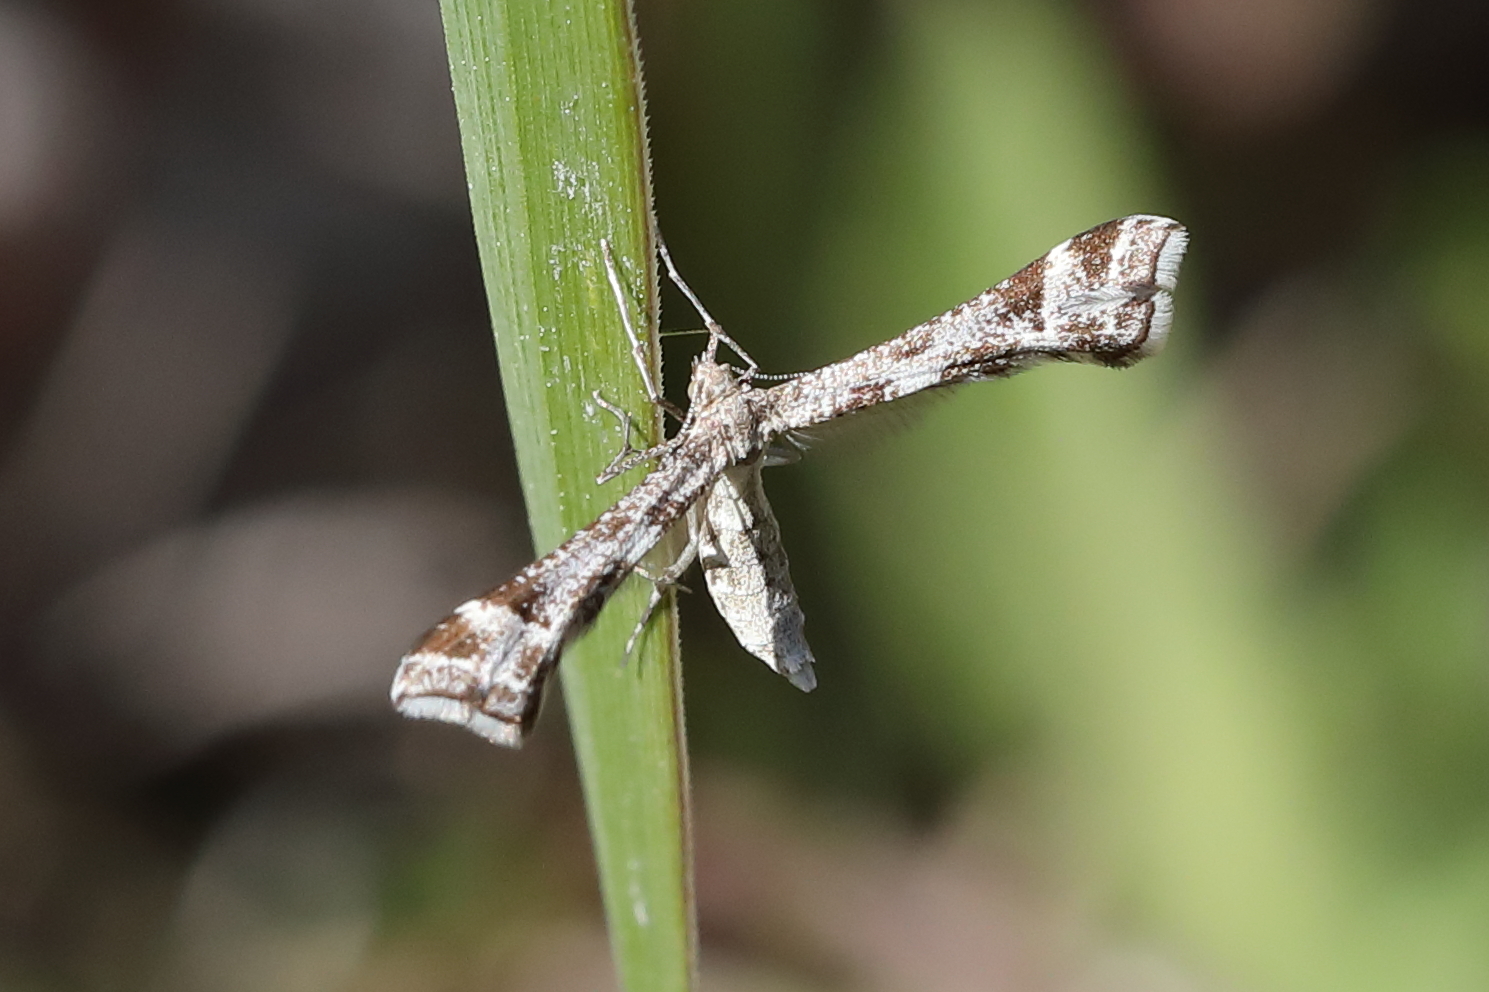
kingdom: Animalia
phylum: Arthropoda
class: Insecta
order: Lepidoptera
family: Pterophoridae
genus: Platyptilia
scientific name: Platyptilia tesseradactyla
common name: Irish plume
